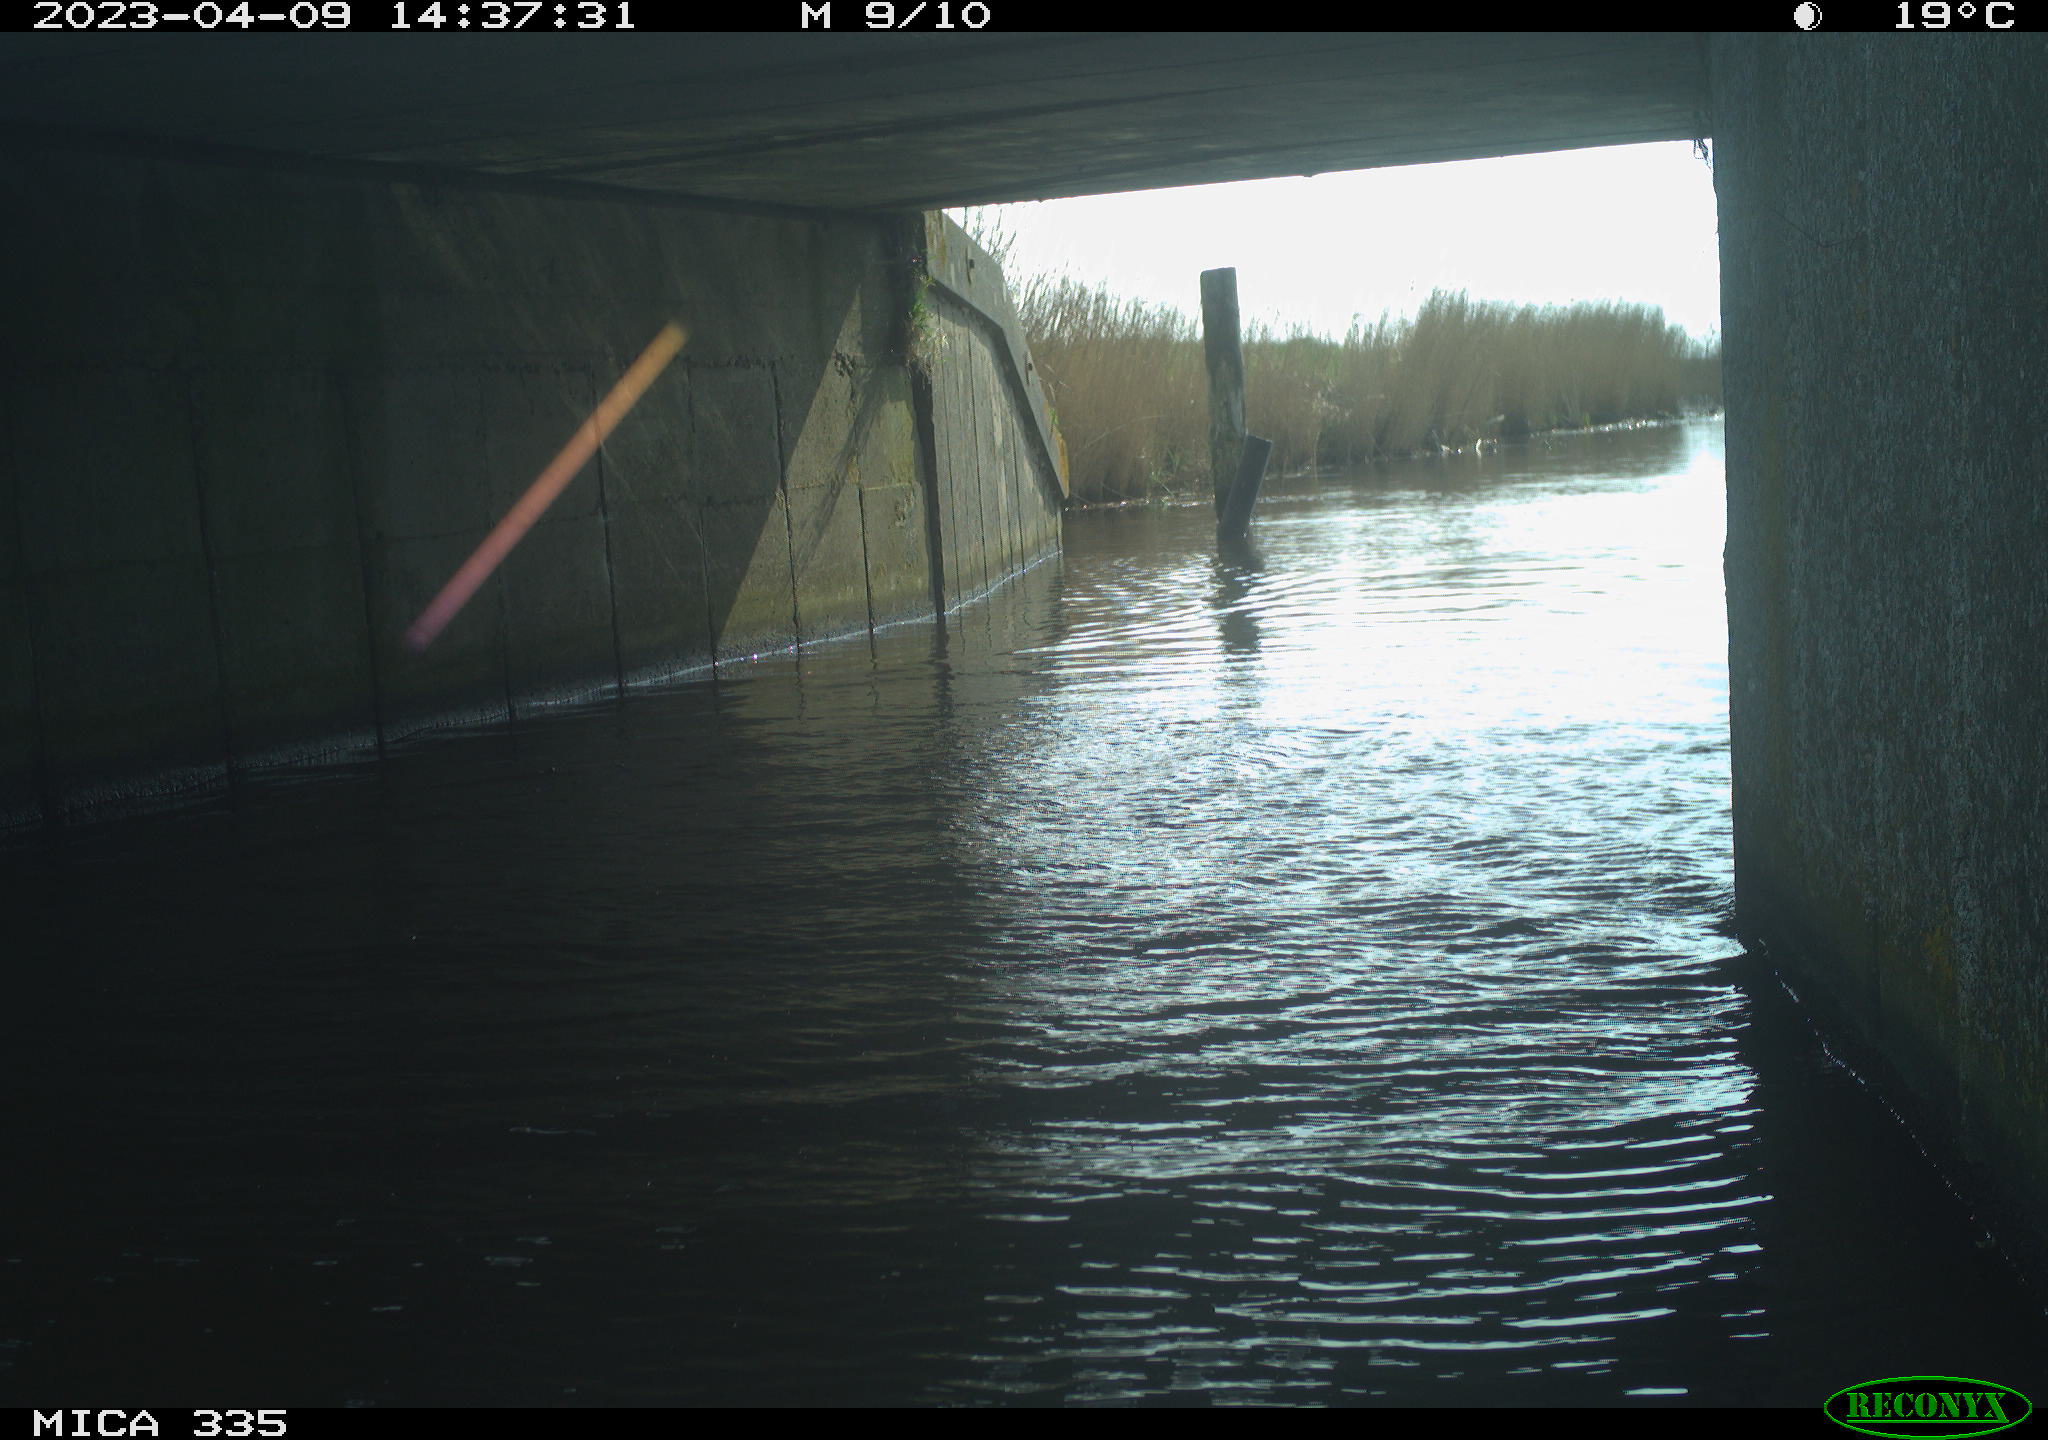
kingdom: Animalia
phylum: Chordata
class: Aves
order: Anseriformes
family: Anatidae
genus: Anas
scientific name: Anas platyrhynchos
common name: Mallard
